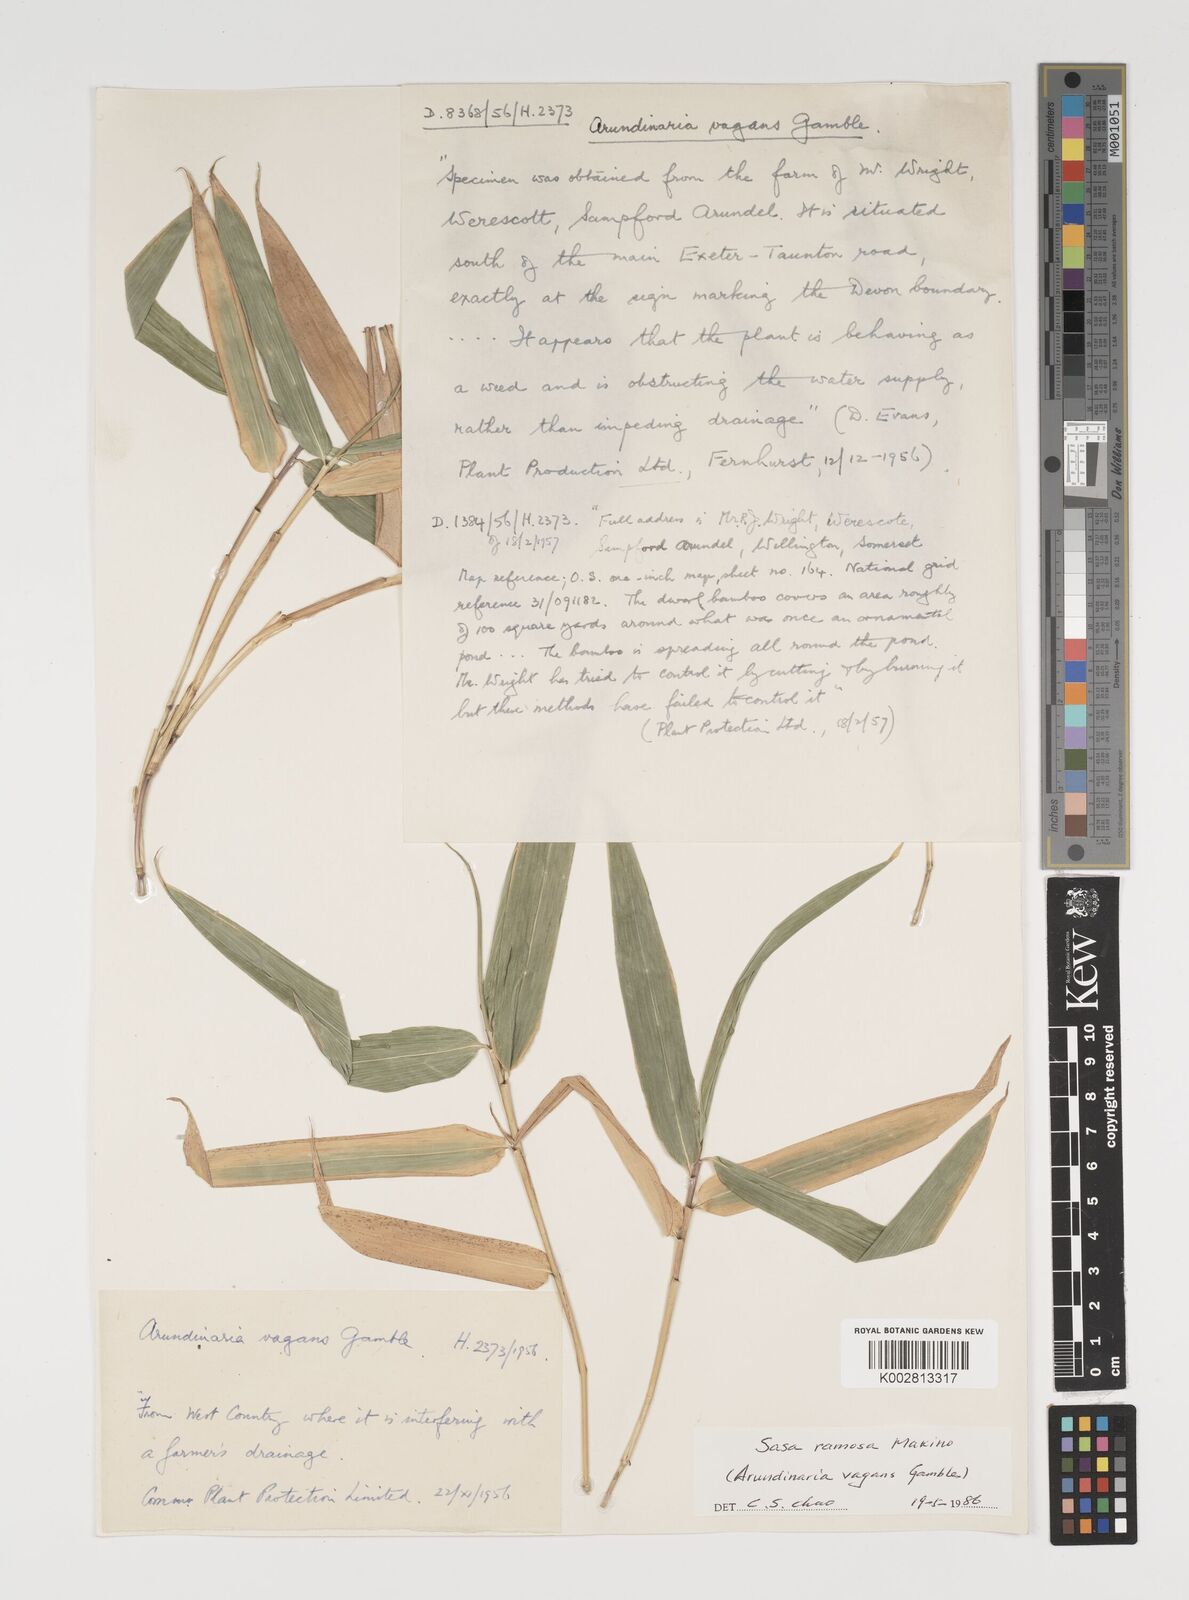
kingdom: Plantae
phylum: Tracheophyta
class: Liliopsida
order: Poales
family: Poaceae
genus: Sasaella
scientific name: Sasaella ramosa
